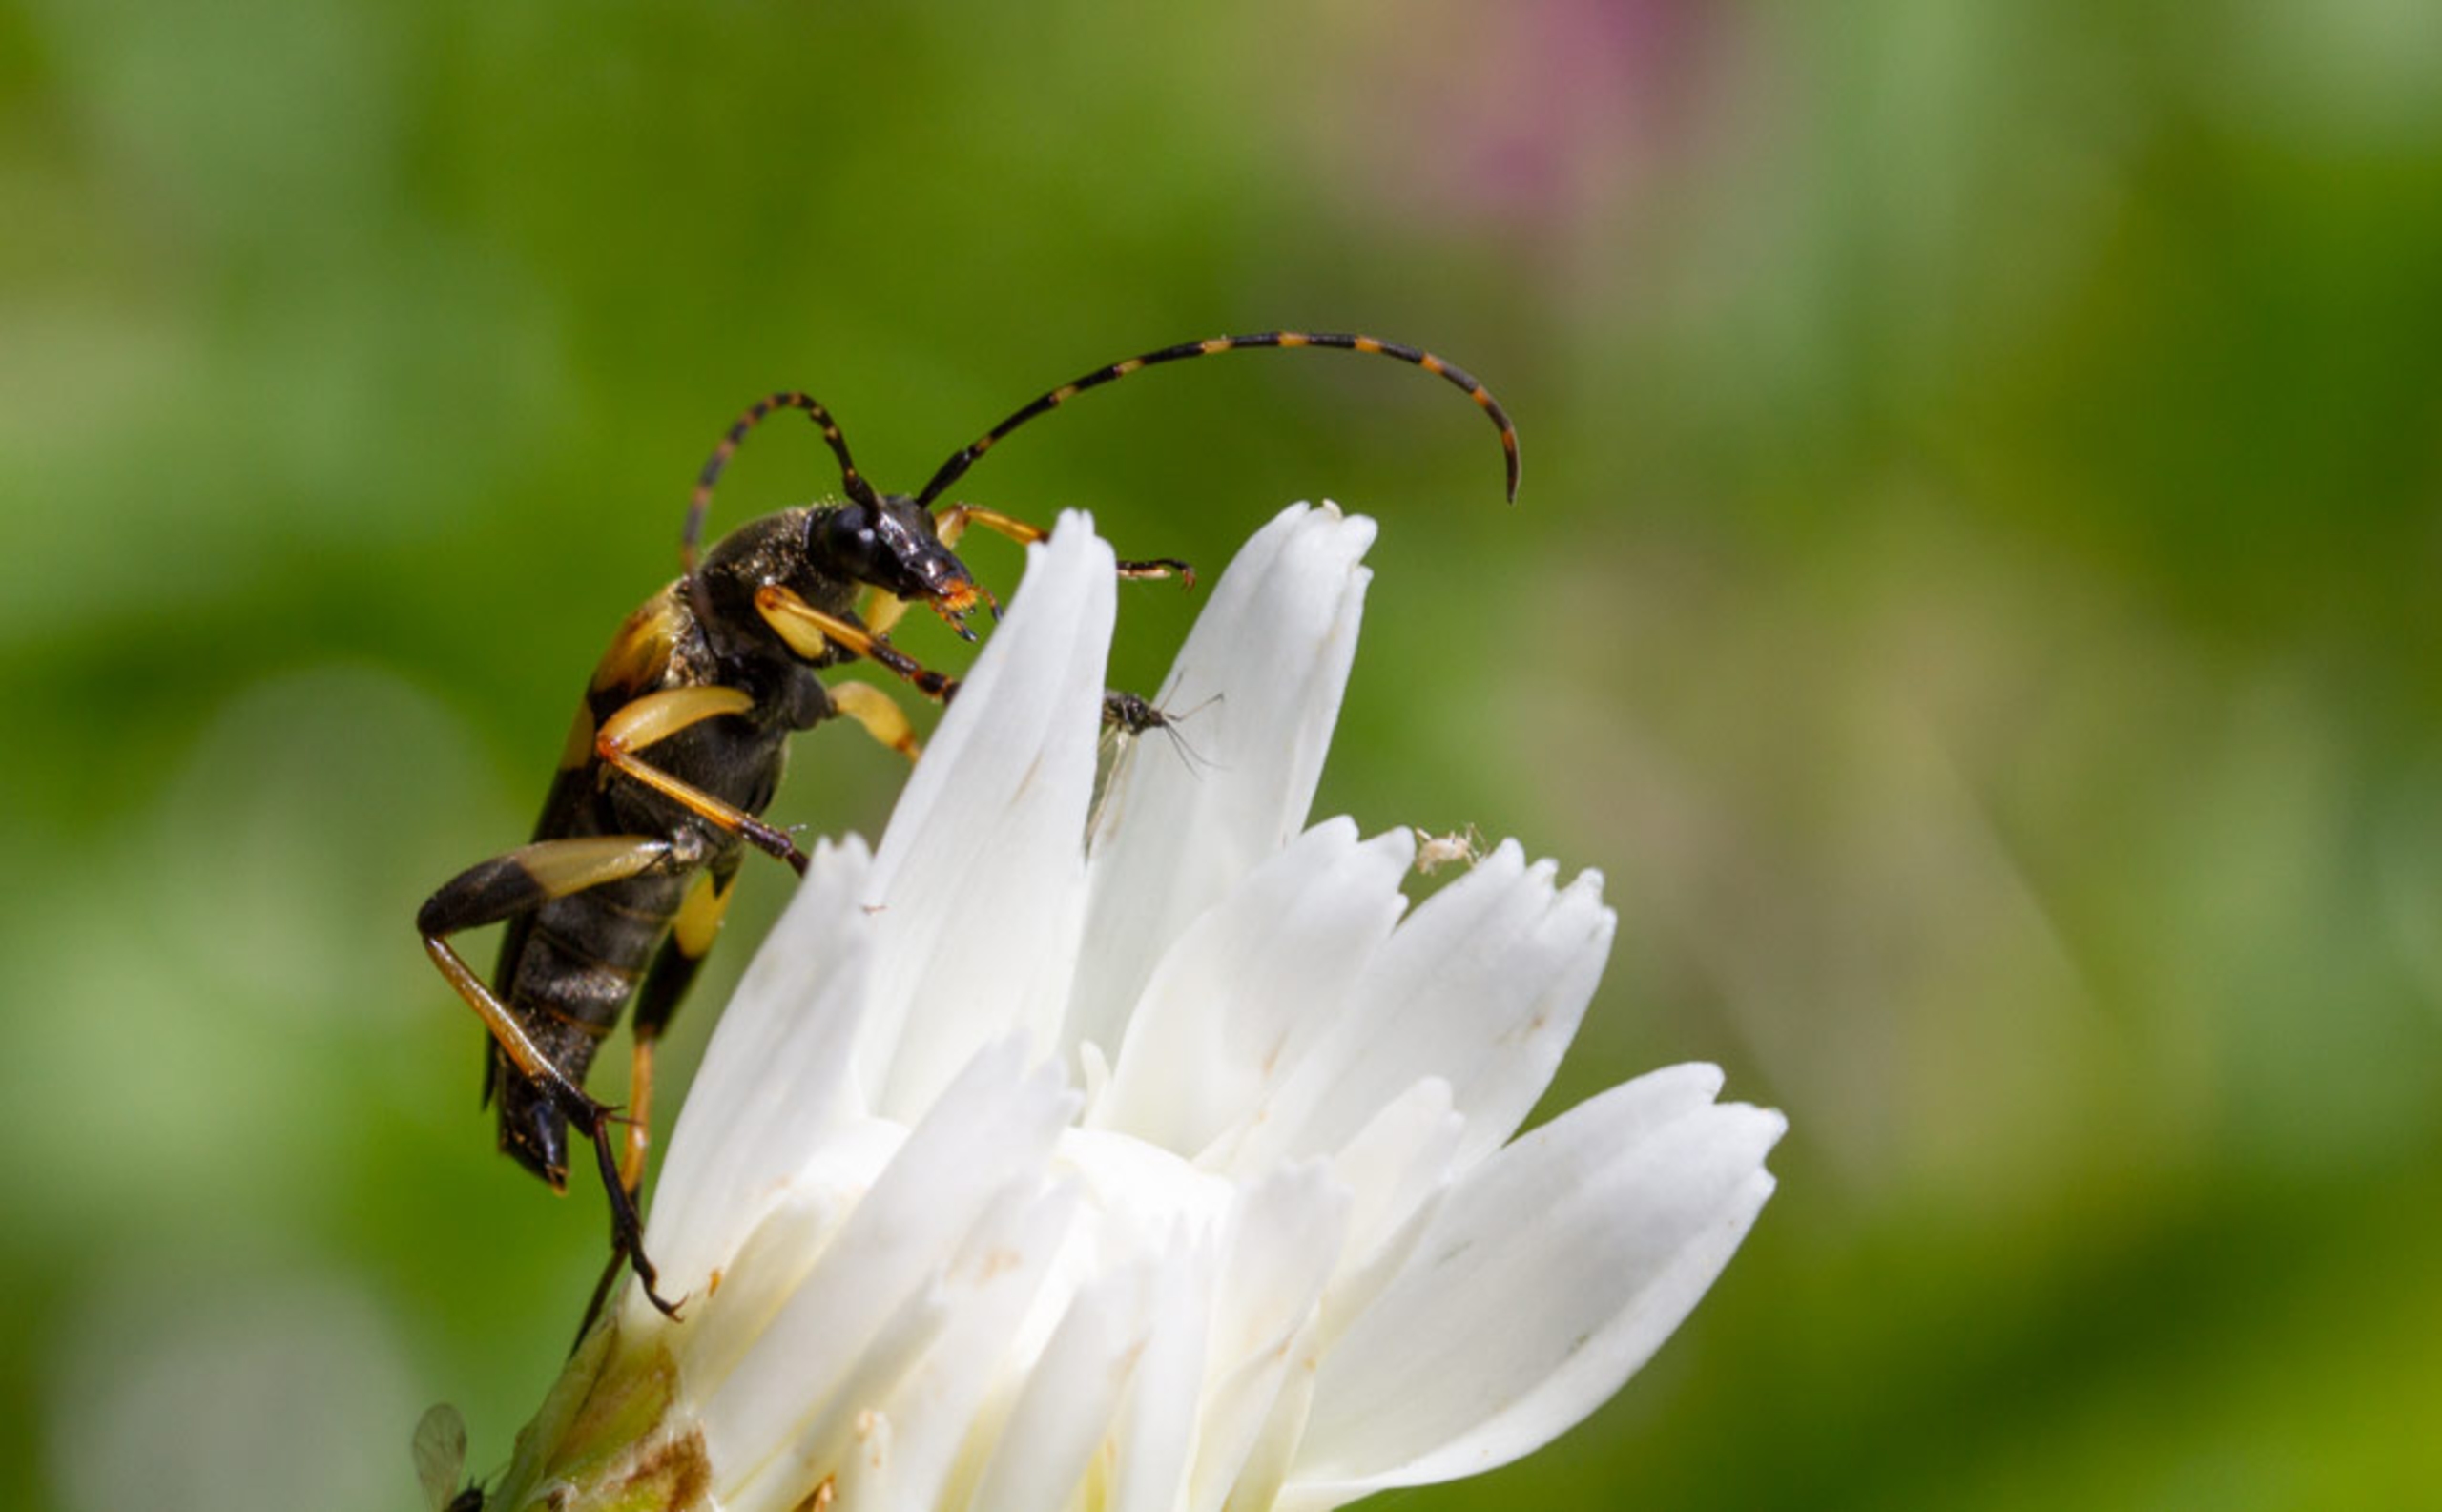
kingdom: Animalia
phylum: Arthropoda
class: Insecta
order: Coleoptera
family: Cerambycidae
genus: Rutpela
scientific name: Rutpela maculata
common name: Sydlig blomsterbuk
